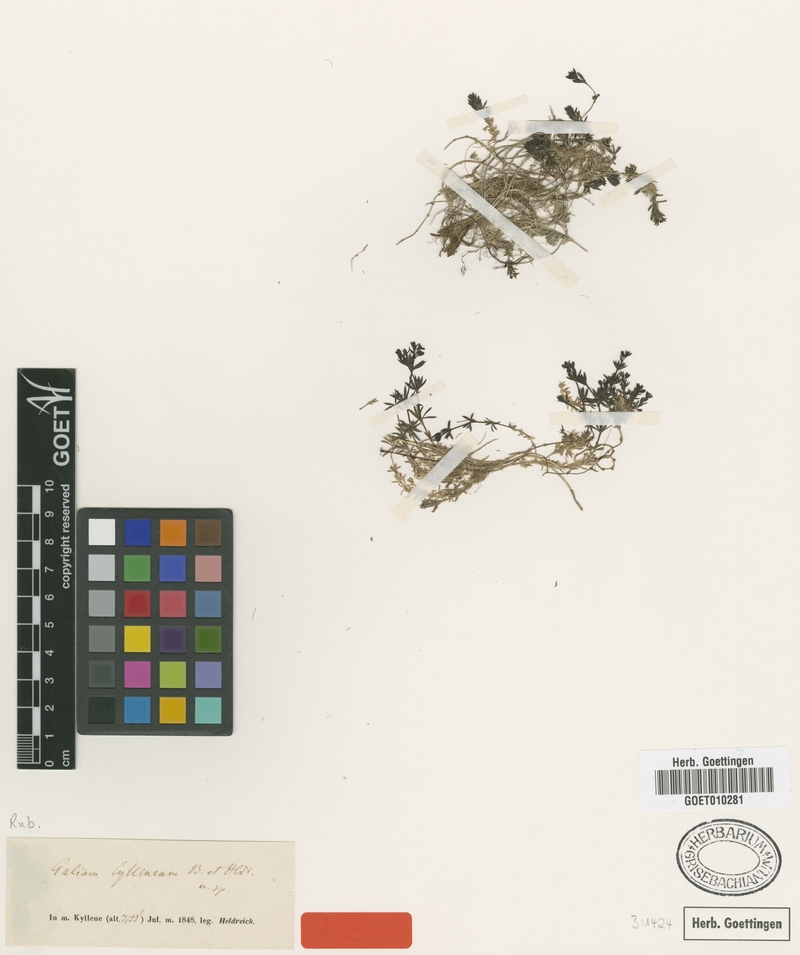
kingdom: Plantae
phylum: Tracheophyta
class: Magnoliopsida
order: Gentianales
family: Rubiaceae
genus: Galium
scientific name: Galium cyllenium
